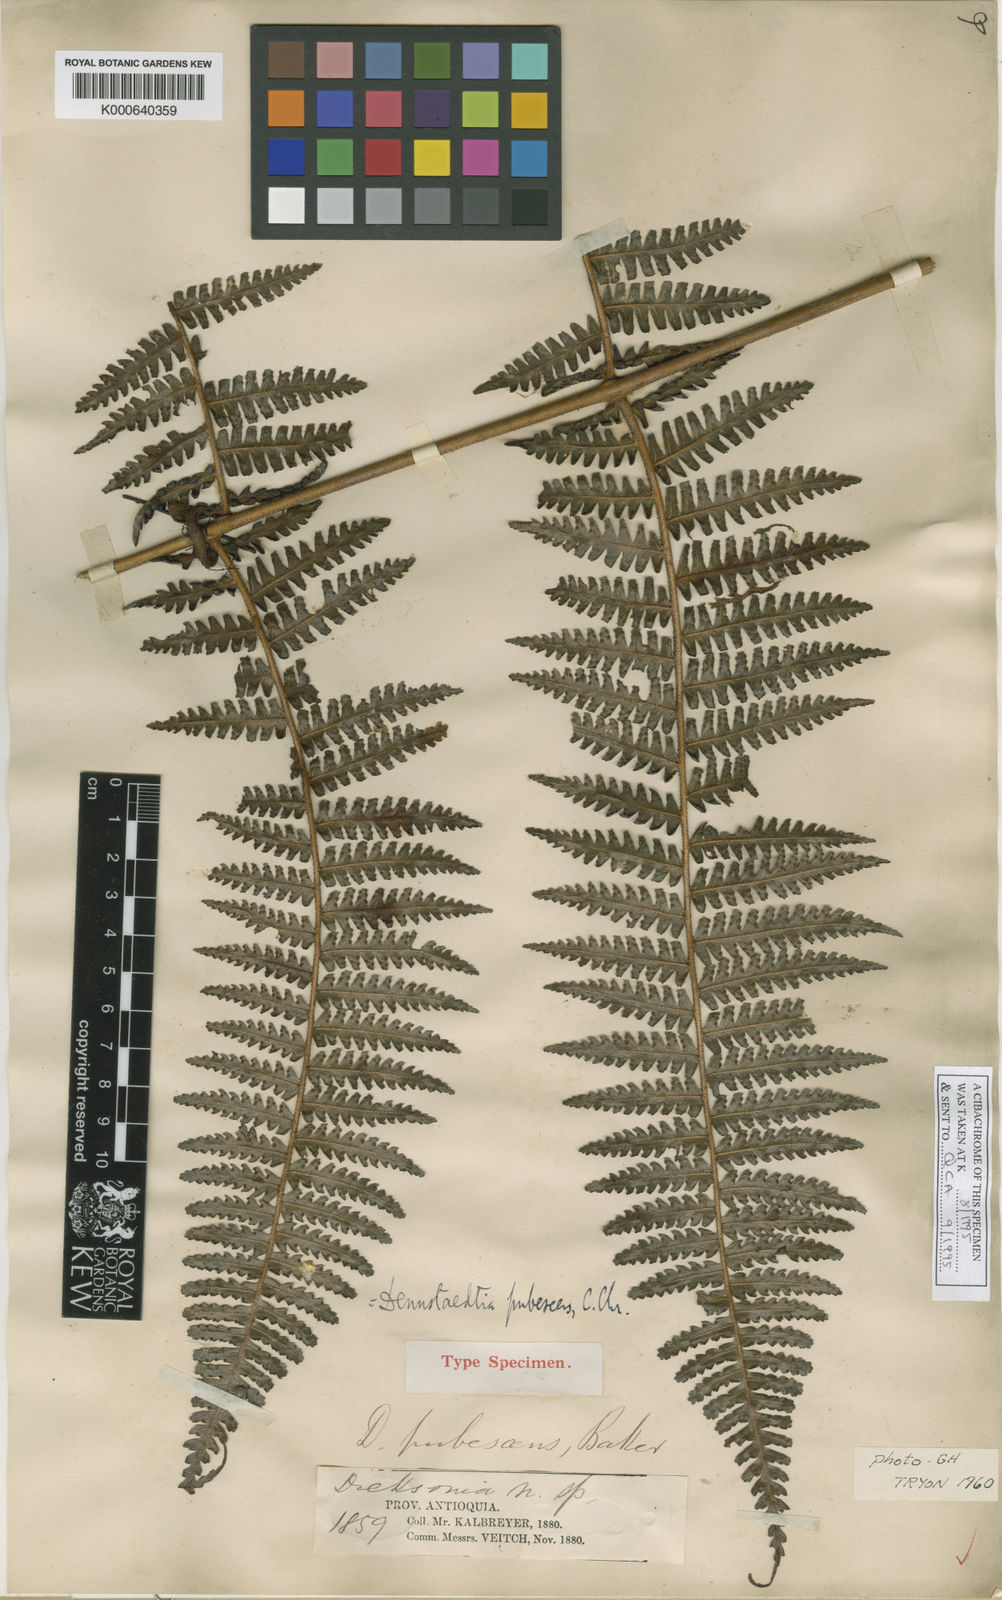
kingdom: Plantae
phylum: Tracheophyta
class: Polypodiopsida
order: Polypodiales
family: Dennstaedtiaceae
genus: Dennstaedtia
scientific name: Dennstaedtia obtusifolia
